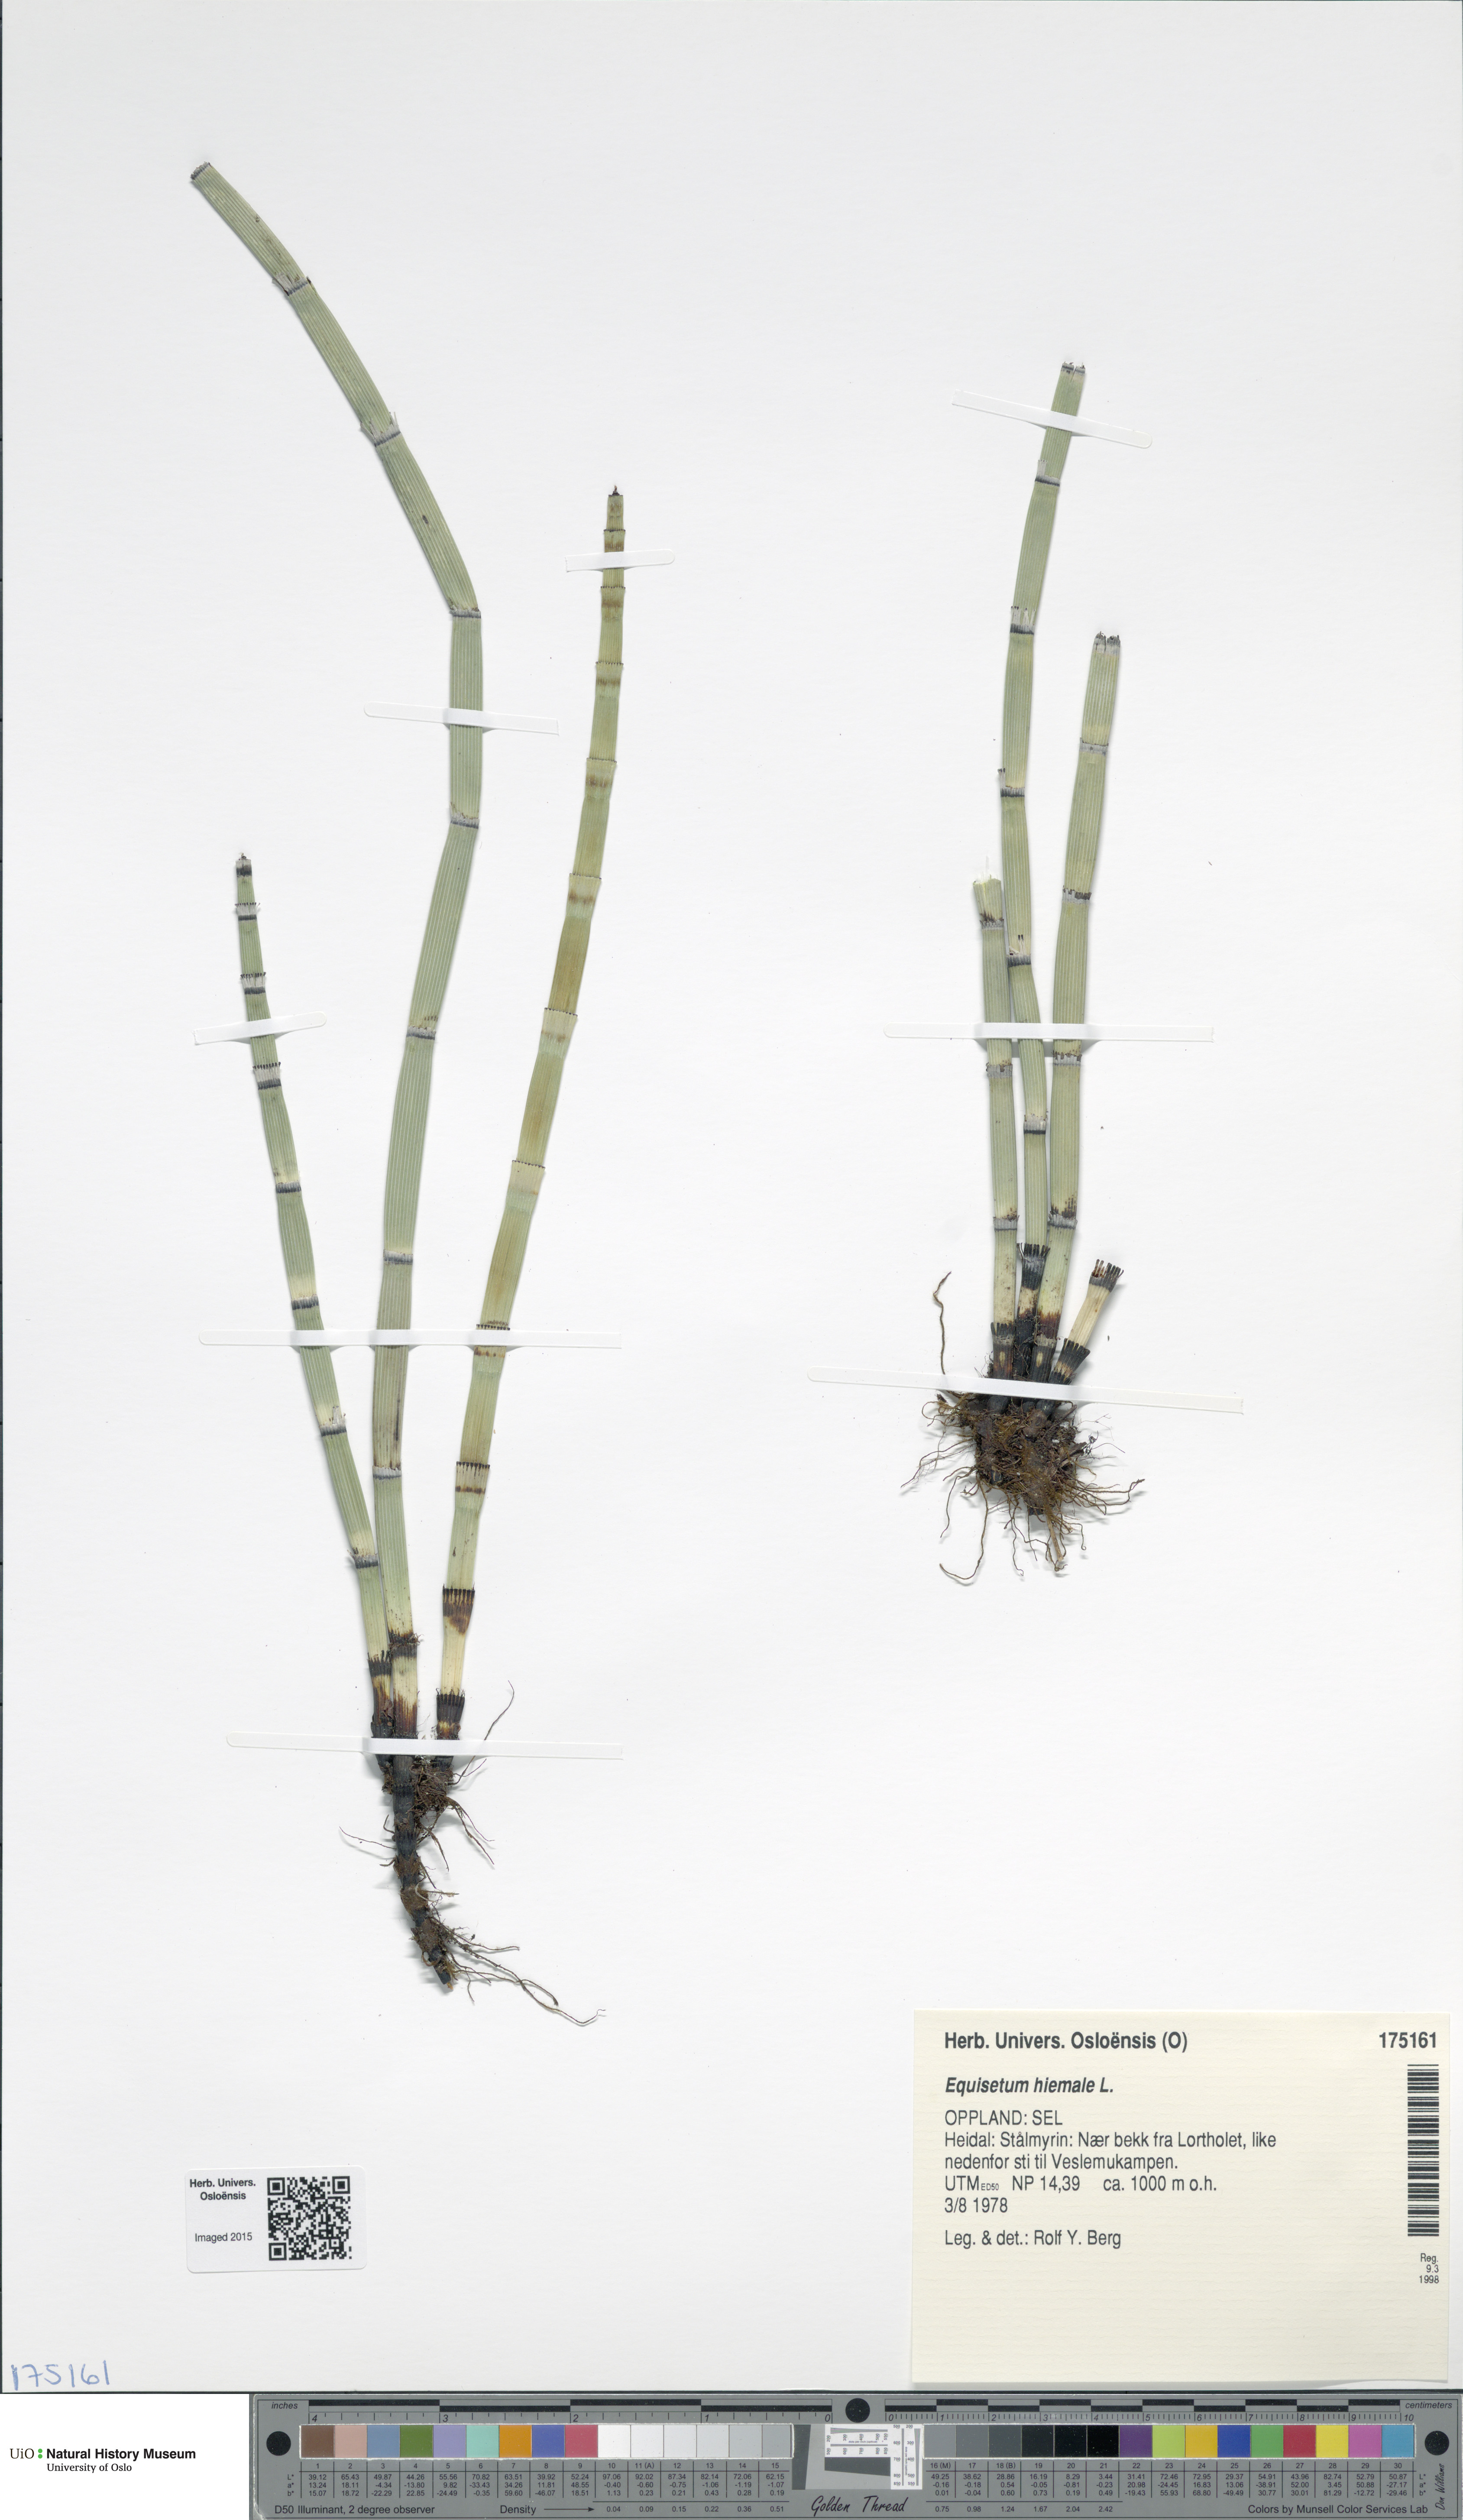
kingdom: Plantae
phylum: Tracheophyta
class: Polypodiopsida
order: Equisetales
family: Equisetaceae
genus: Equisetum
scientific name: Equisetum hyemale
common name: Rough horsetail
